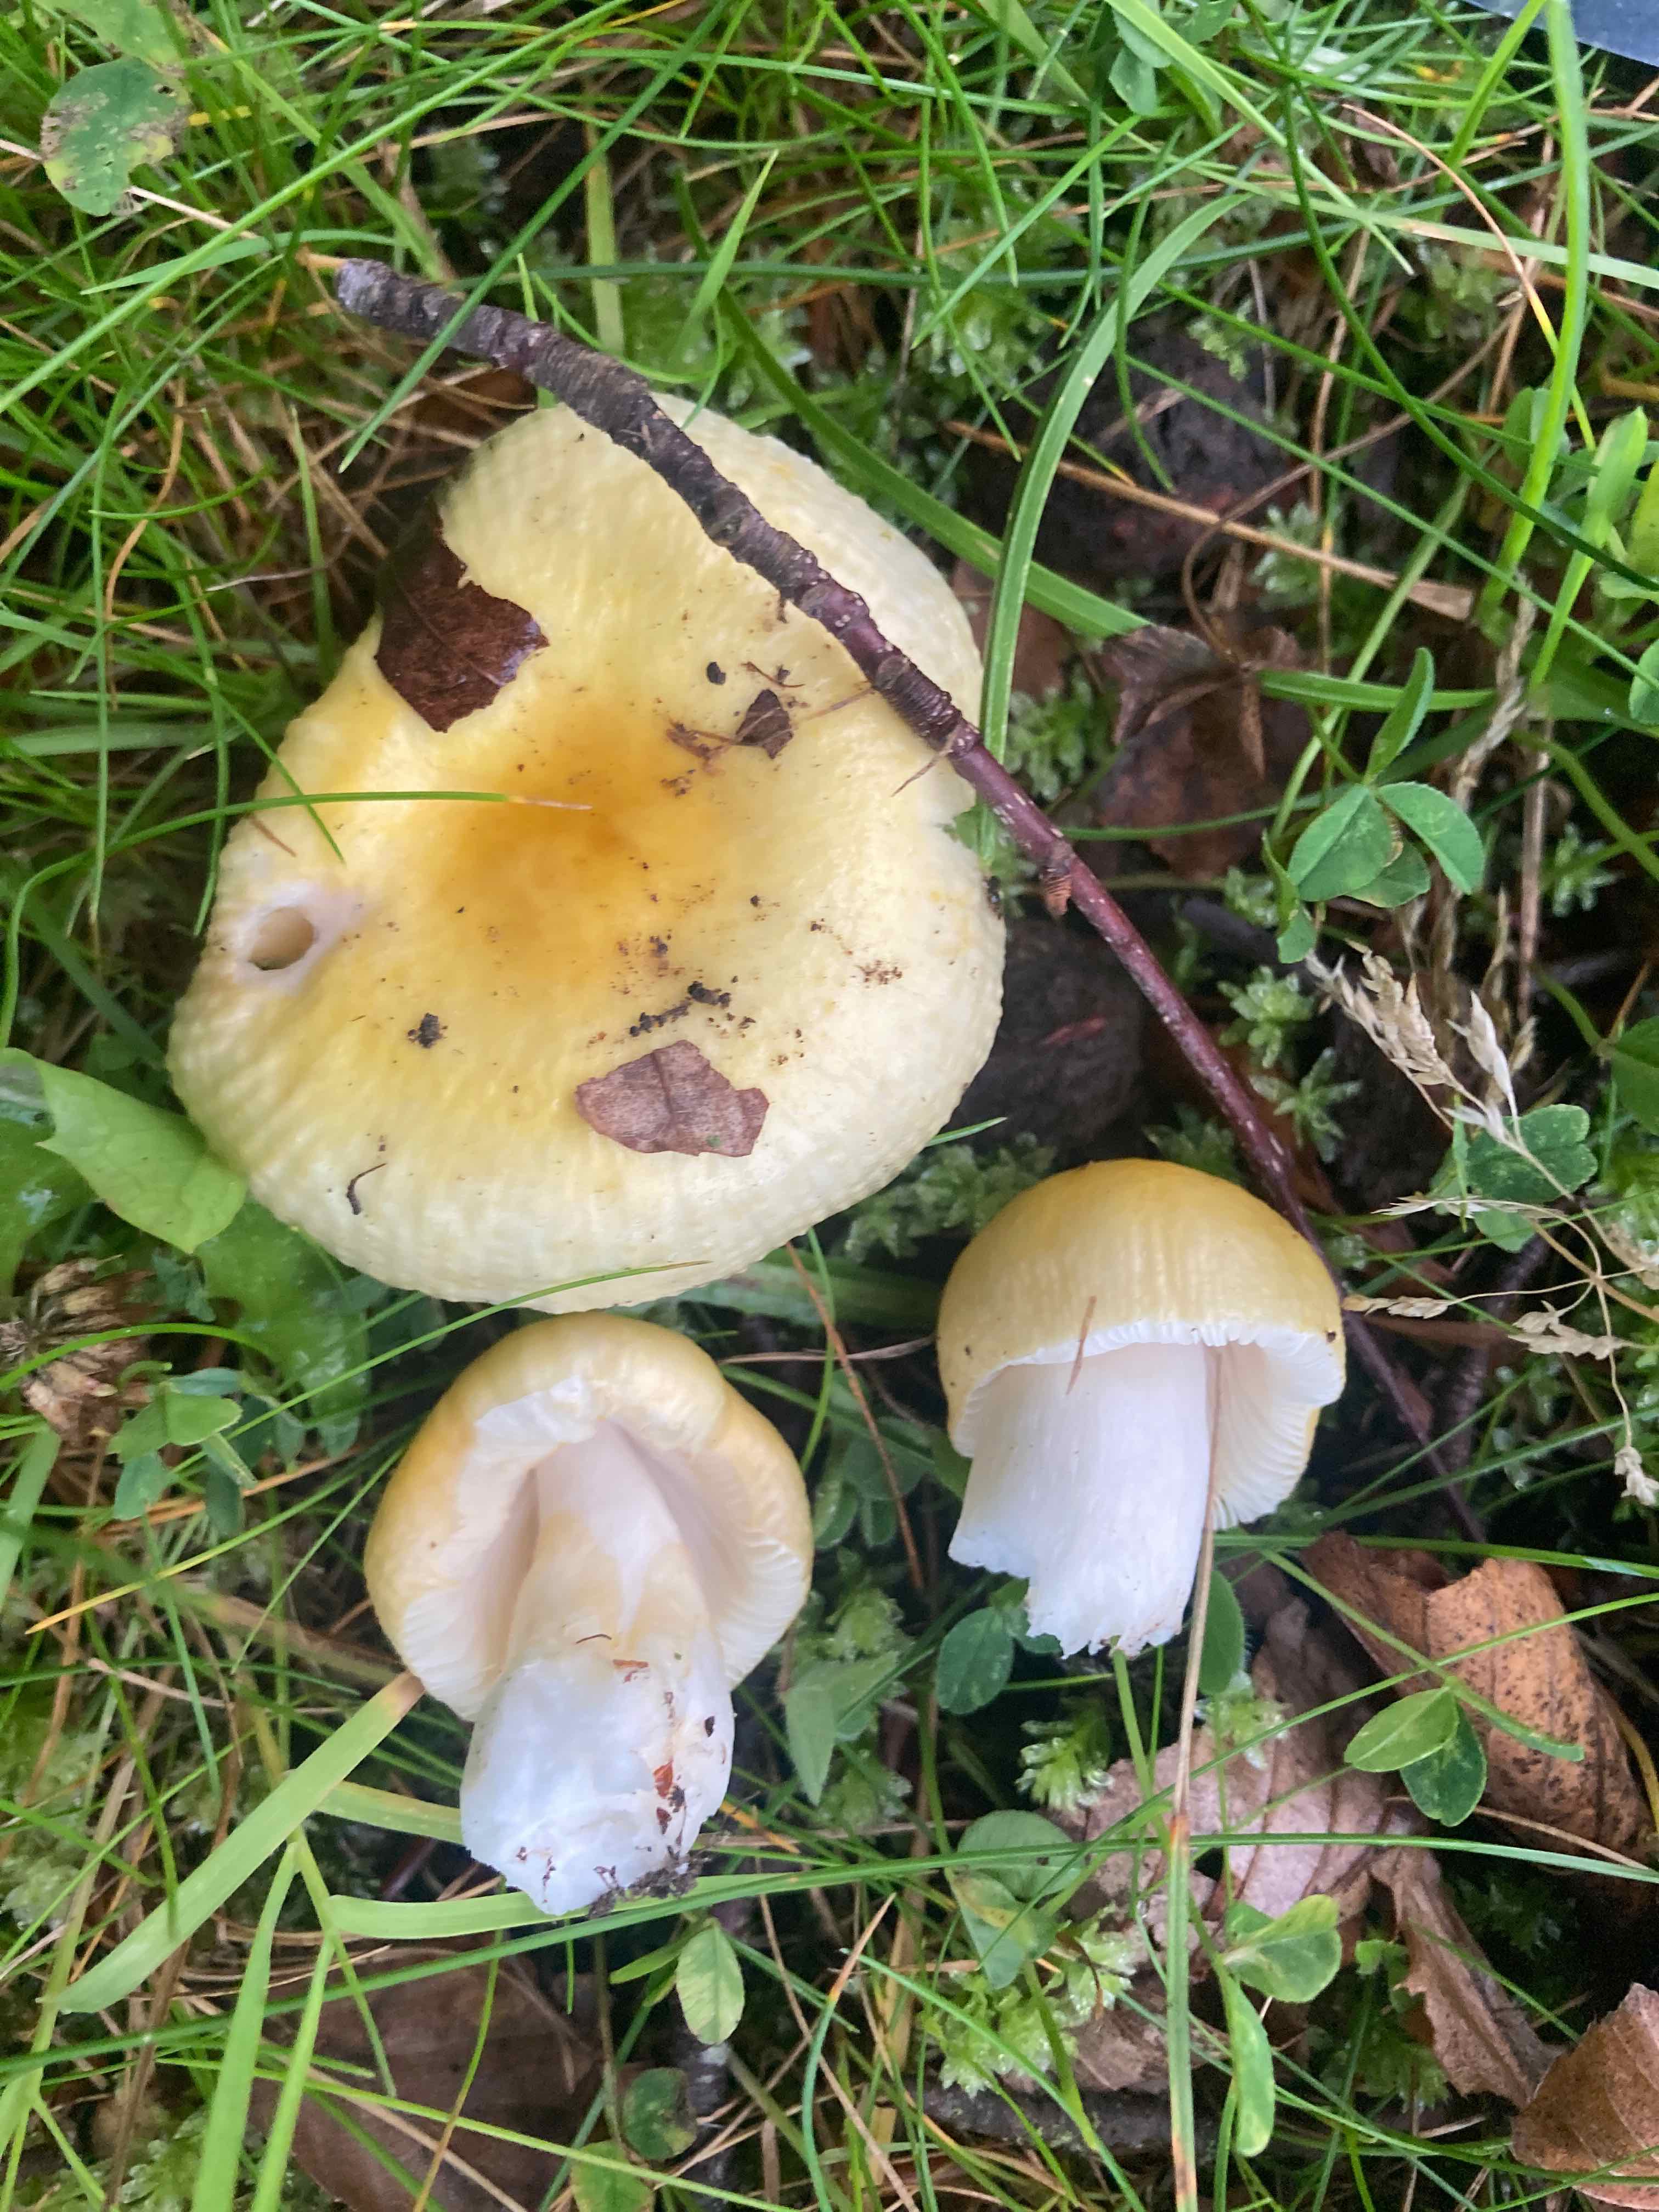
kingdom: Fungi
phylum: Basidiomycota
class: Agaricomycetes
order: Russulales
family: Russulaceae
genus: Russula
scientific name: Russula solaris
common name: sol-skørhat
